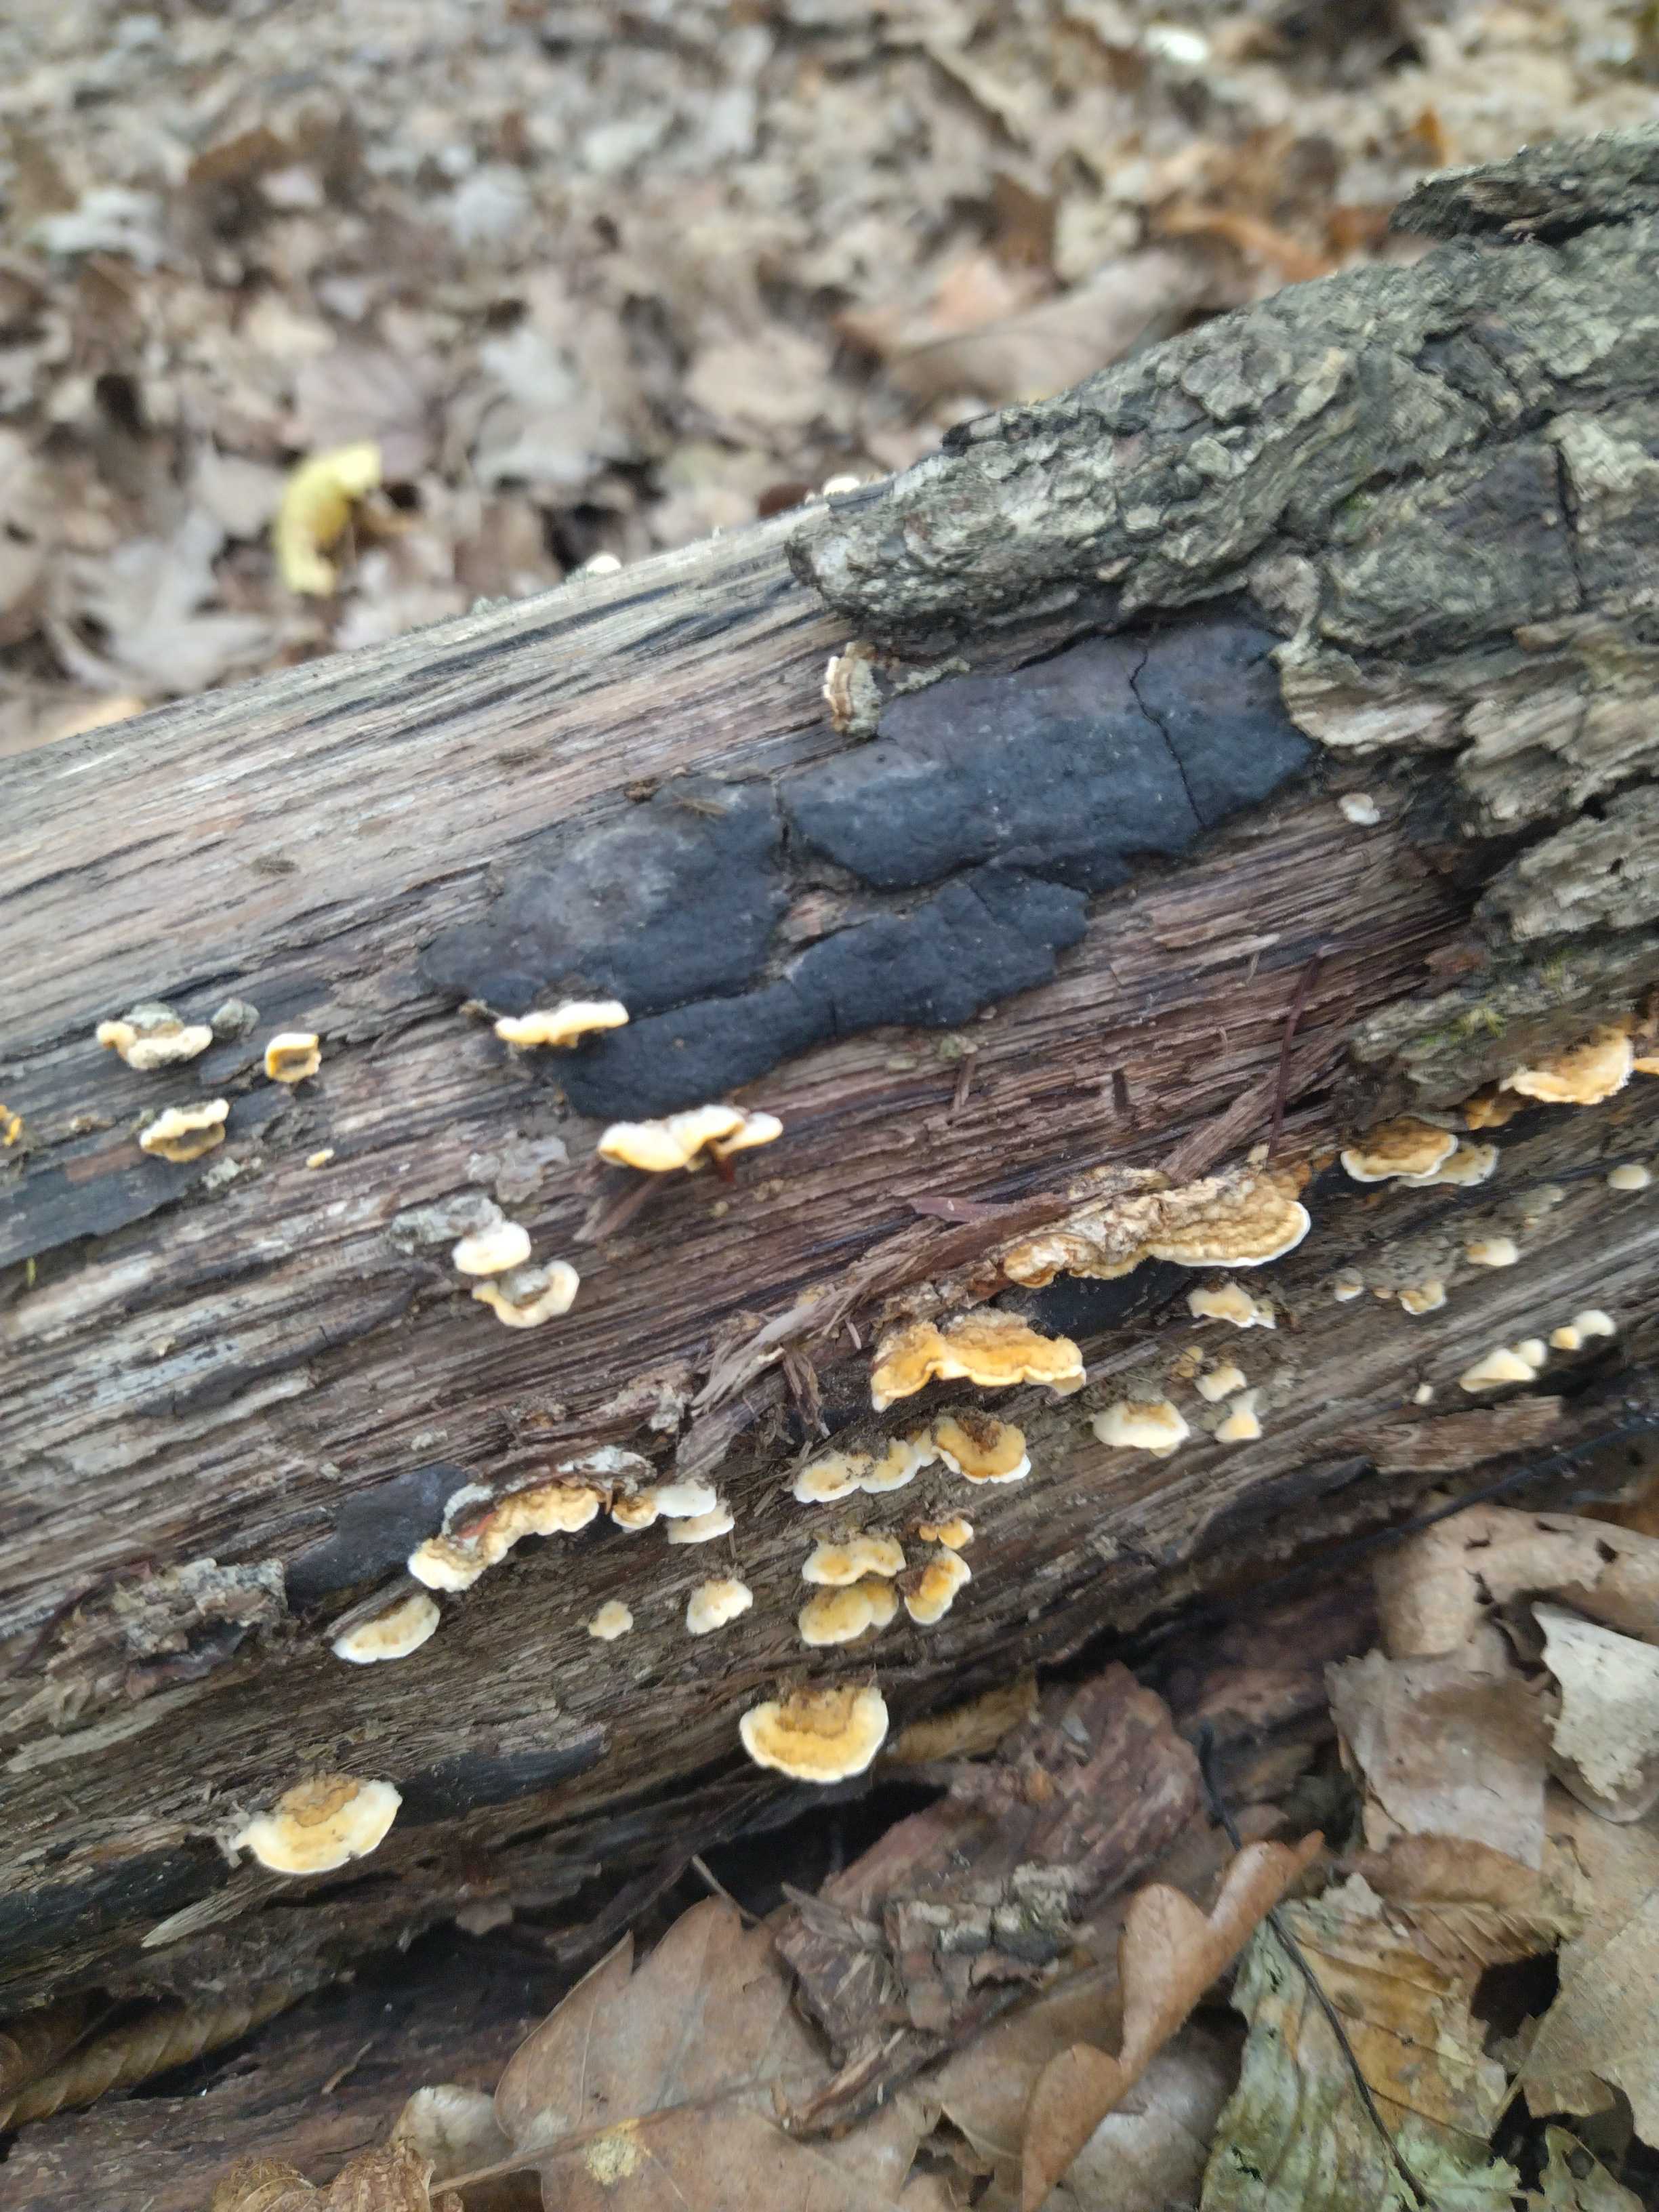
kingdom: Fungi
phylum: Basidiomycota
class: Agaricomycetes
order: Russulales
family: Stereaceae
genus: Stereum
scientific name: Stereum hirsutum
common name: håret lædersvamp
